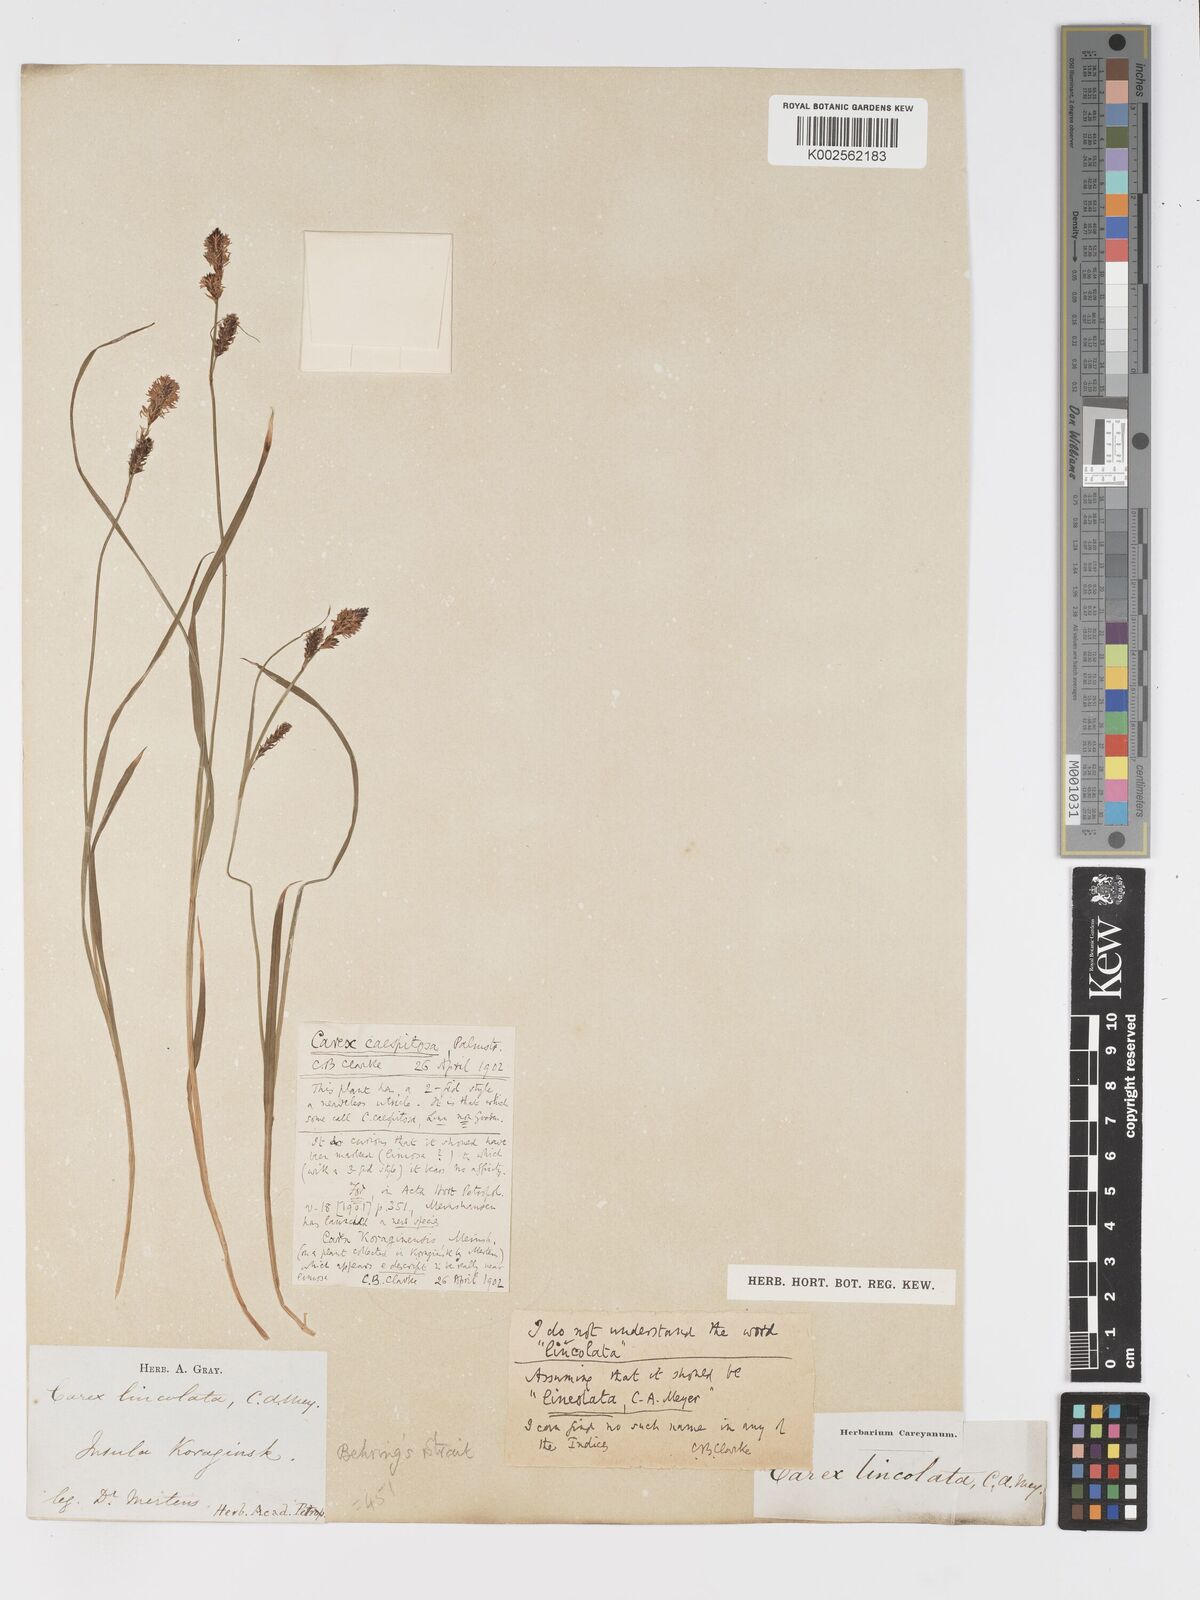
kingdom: Plantae
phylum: Tracheophyta
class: Liliopsida
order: Poales
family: Cyperaceae
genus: Carex
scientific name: Carex nigra
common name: Common sedge
